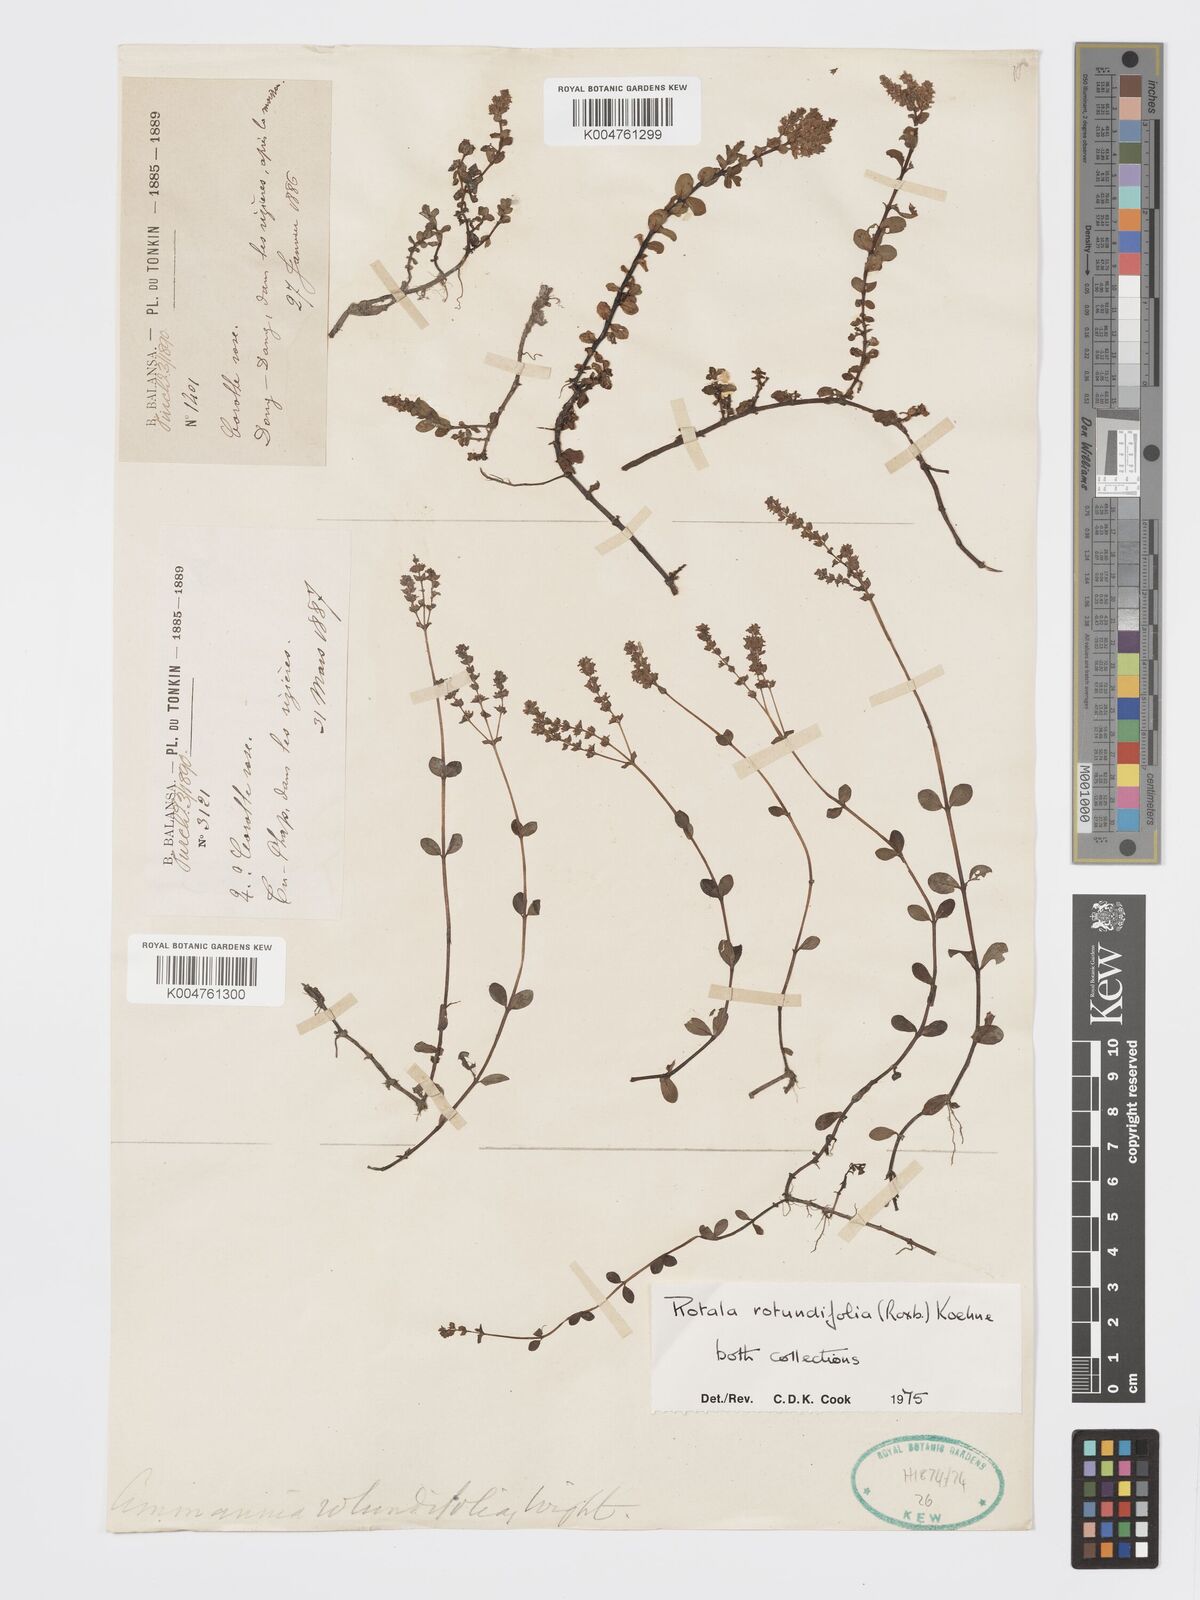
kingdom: Plantae
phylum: Tracheophyta
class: Magnoliopsida
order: Myrtales
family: Lythraceae
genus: Rotala
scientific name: Rotala rotundifolia
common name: Roundleaf toothcup
